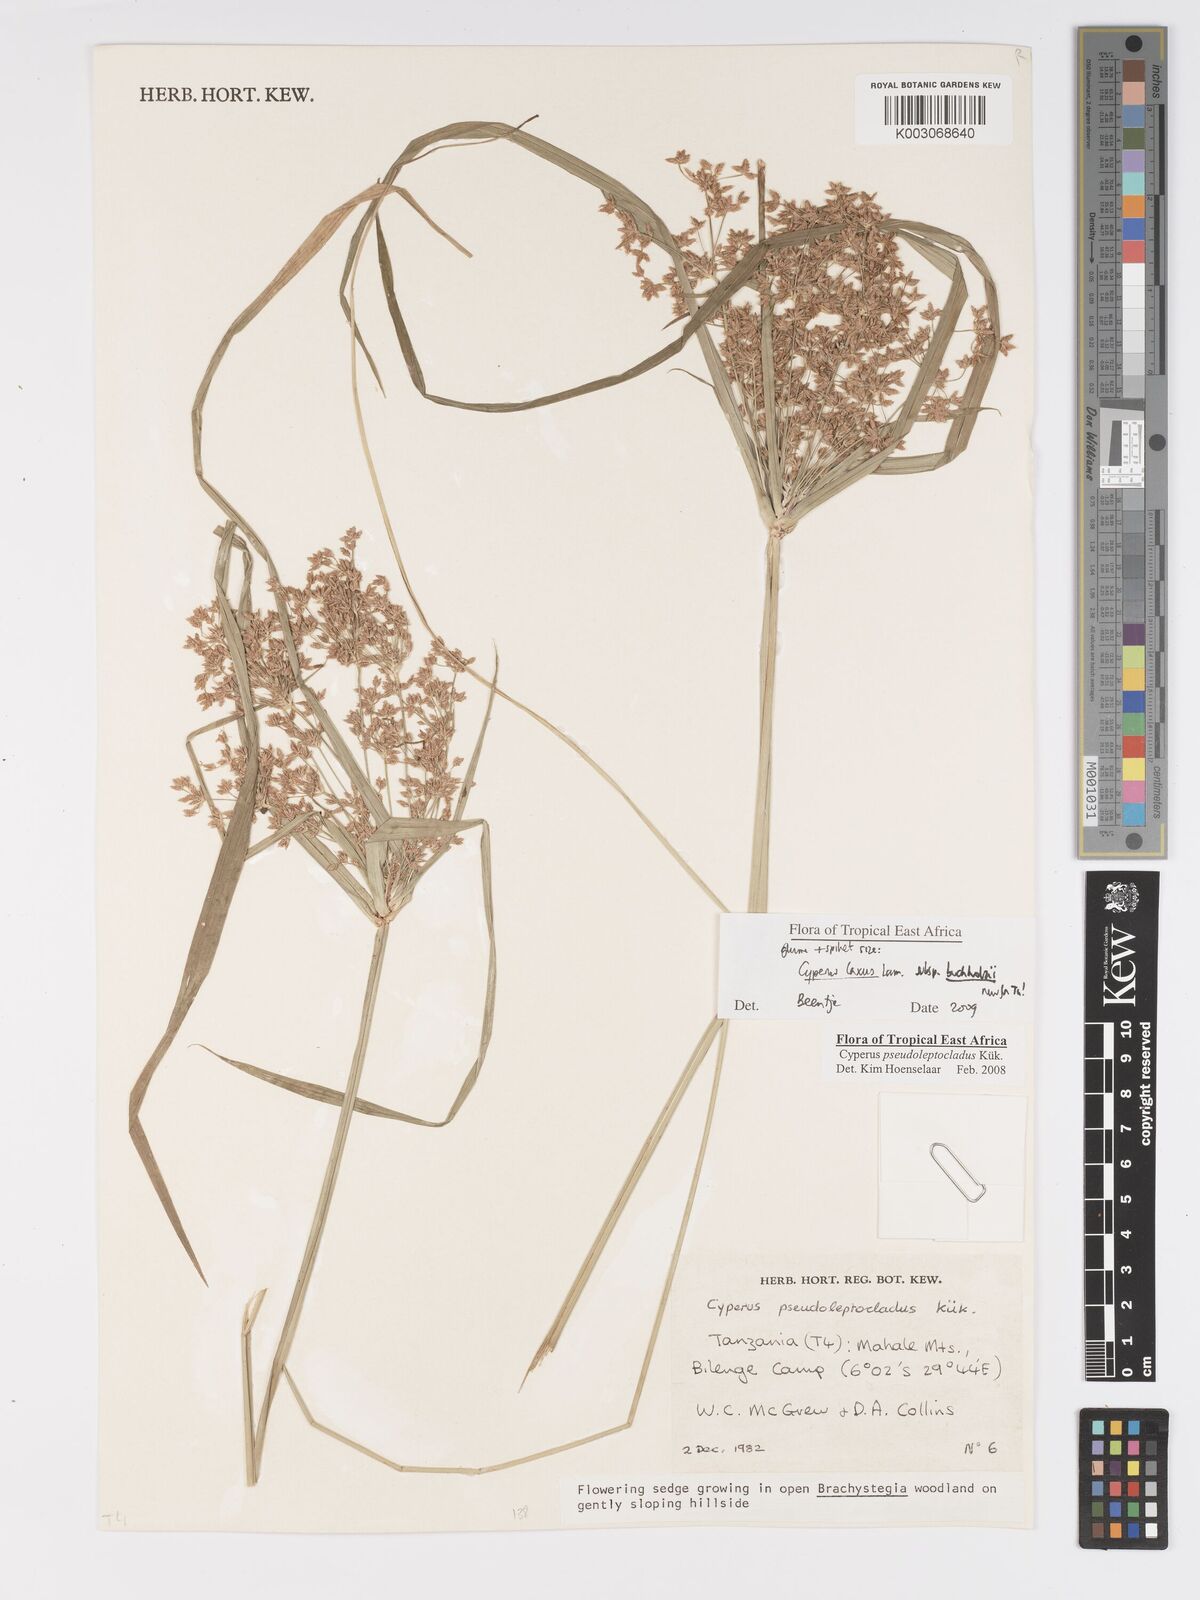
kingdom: Plantae
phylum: Tracheophyta
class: Liliopsida
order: Poales
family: Cyperaceae
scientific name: Cyperaceae
